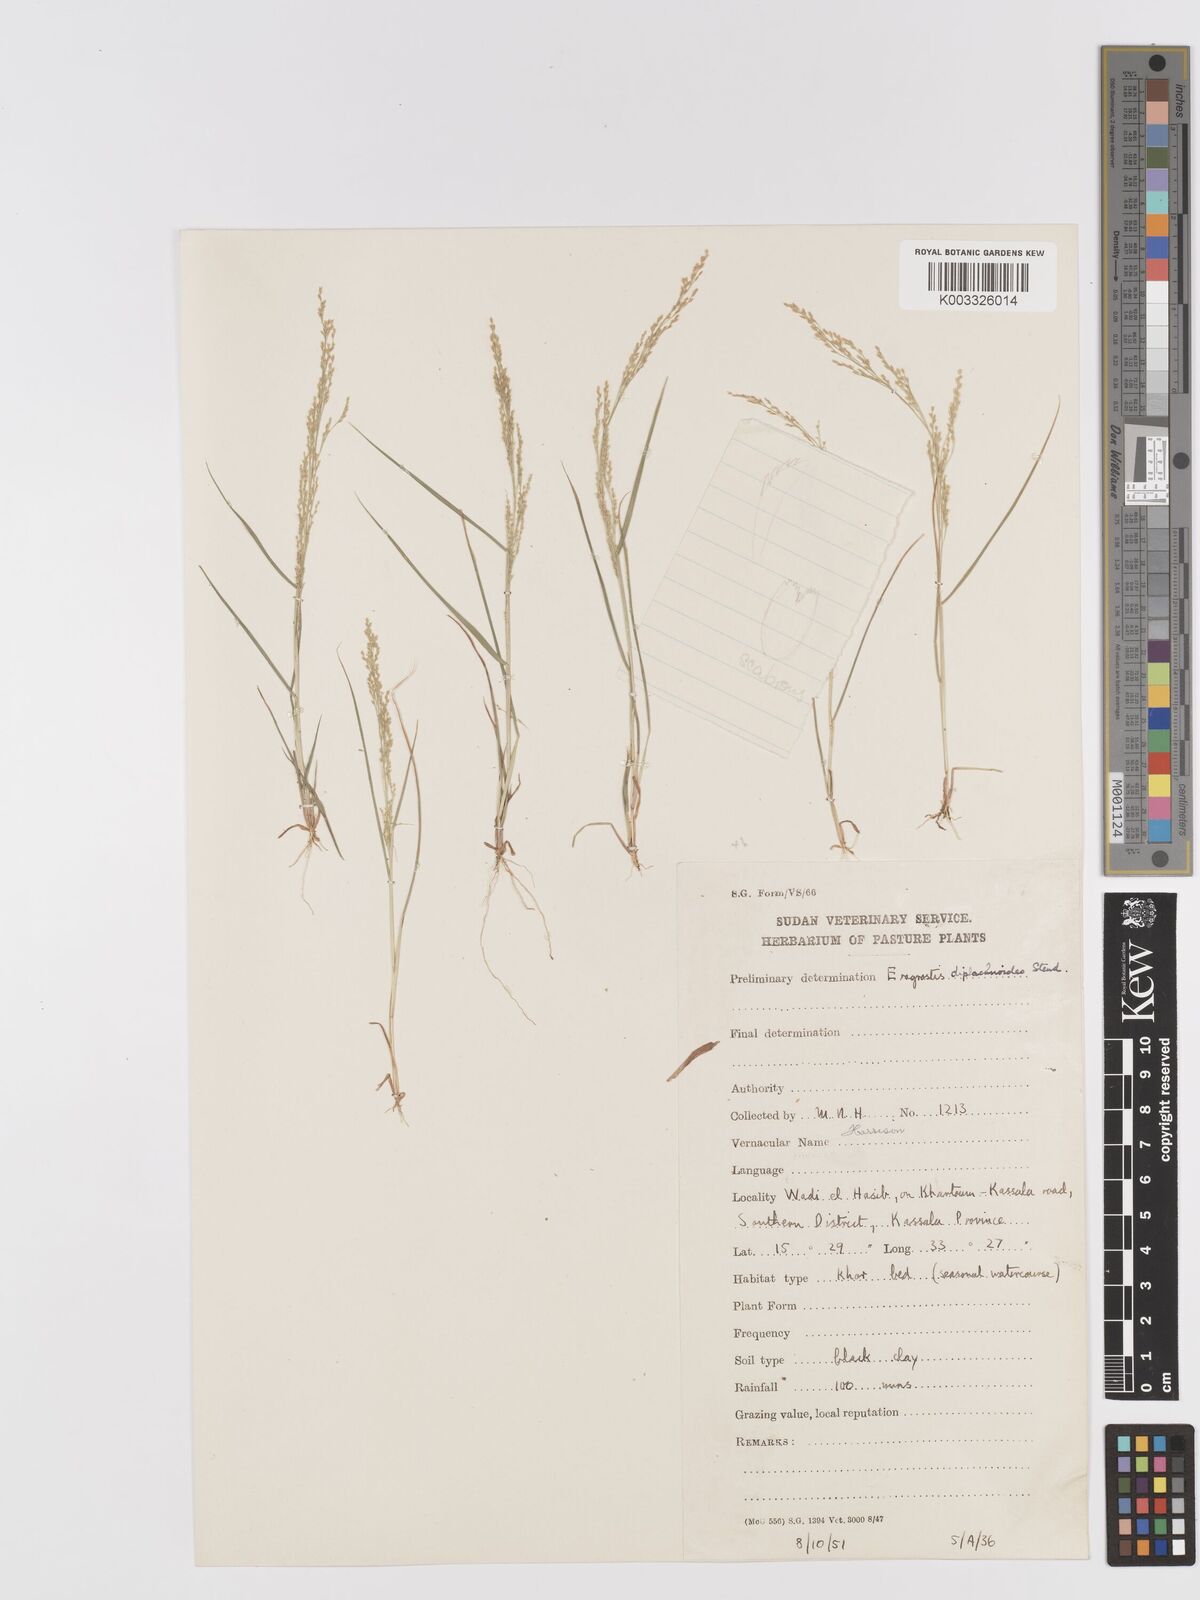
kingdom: Plantae
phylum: Tracheophyta
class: Liliopsida
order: Poales
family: Poaceae
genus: Eragrostis
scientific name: Eragrostis japonica
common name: Pond lovegrass
